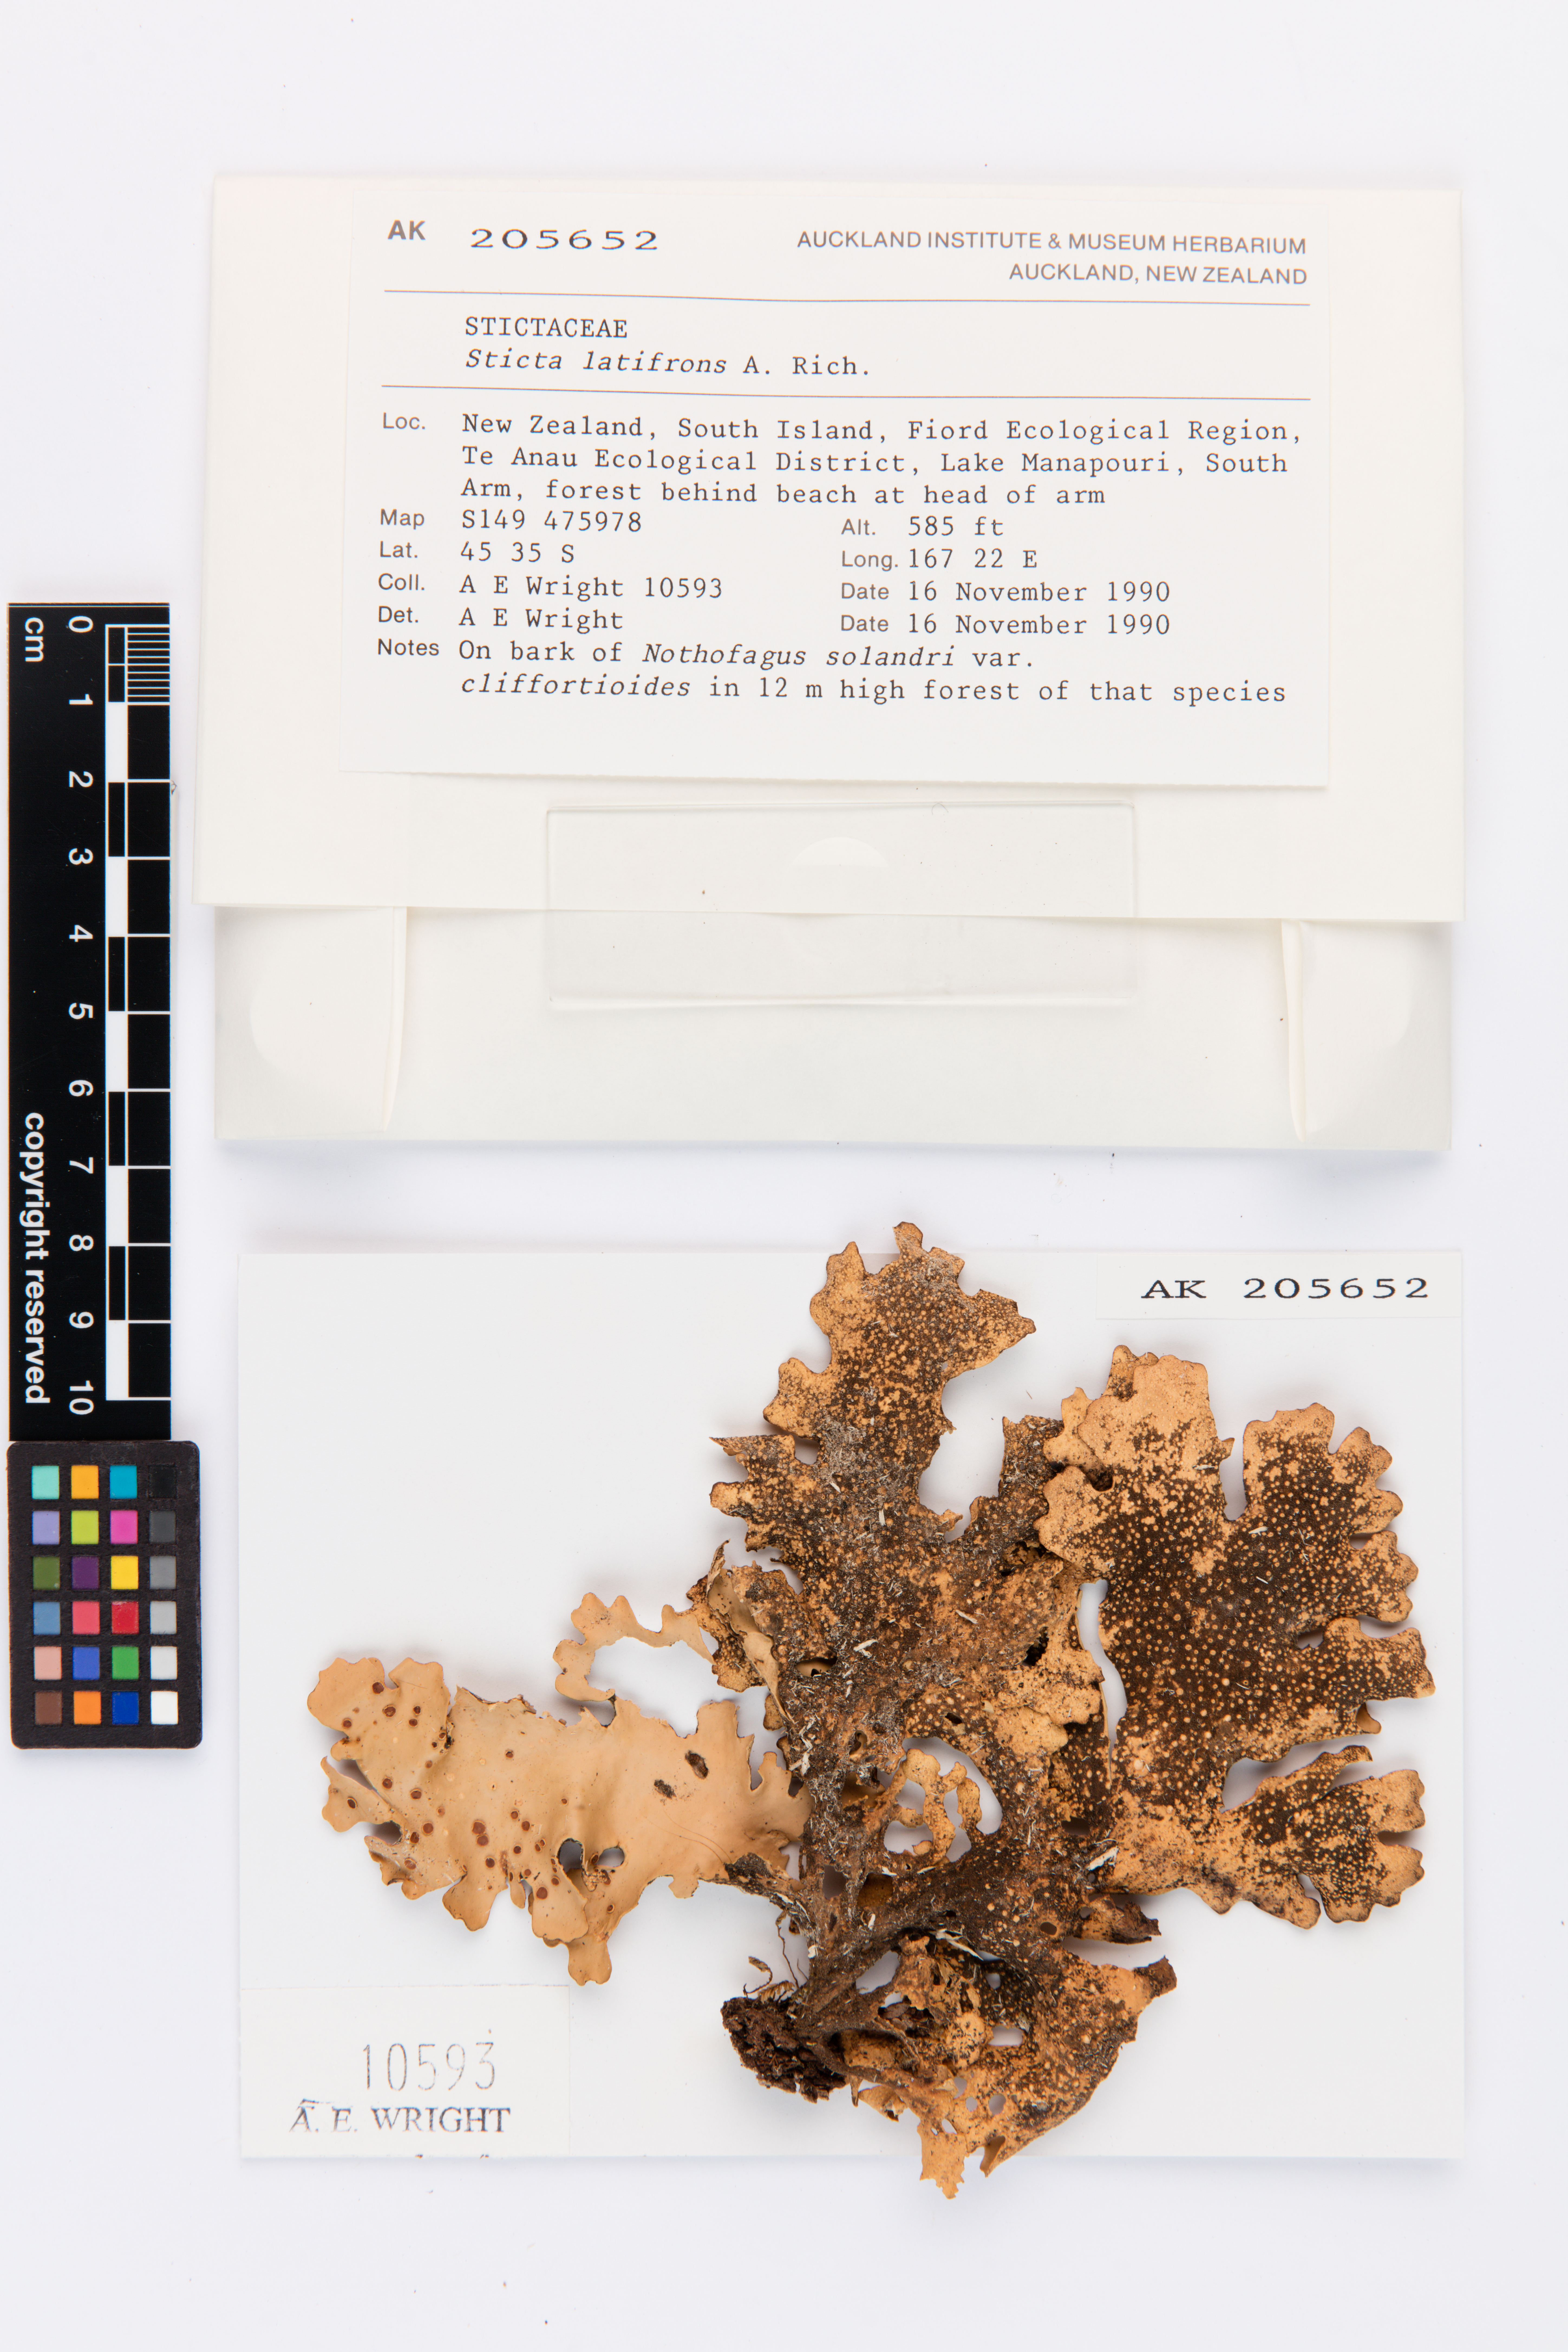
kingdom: Fungi
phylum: Ascomycota
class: Lecanoromycetes
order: Peltigerales
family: Lobariaceae
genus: Sticta
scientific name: Sticta latifrons
